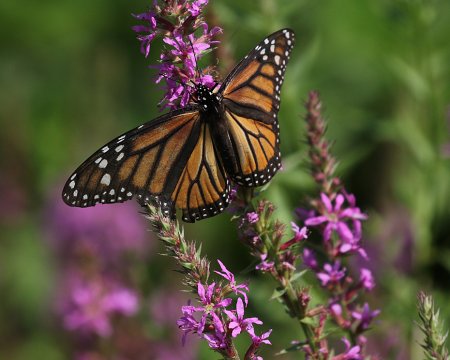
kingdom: Animalia
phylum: Arthropoda
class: Insecta
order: Lepidoptera
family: Nymphalidae
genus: Danaus
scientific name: Danaus plexippus
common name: Monarch
